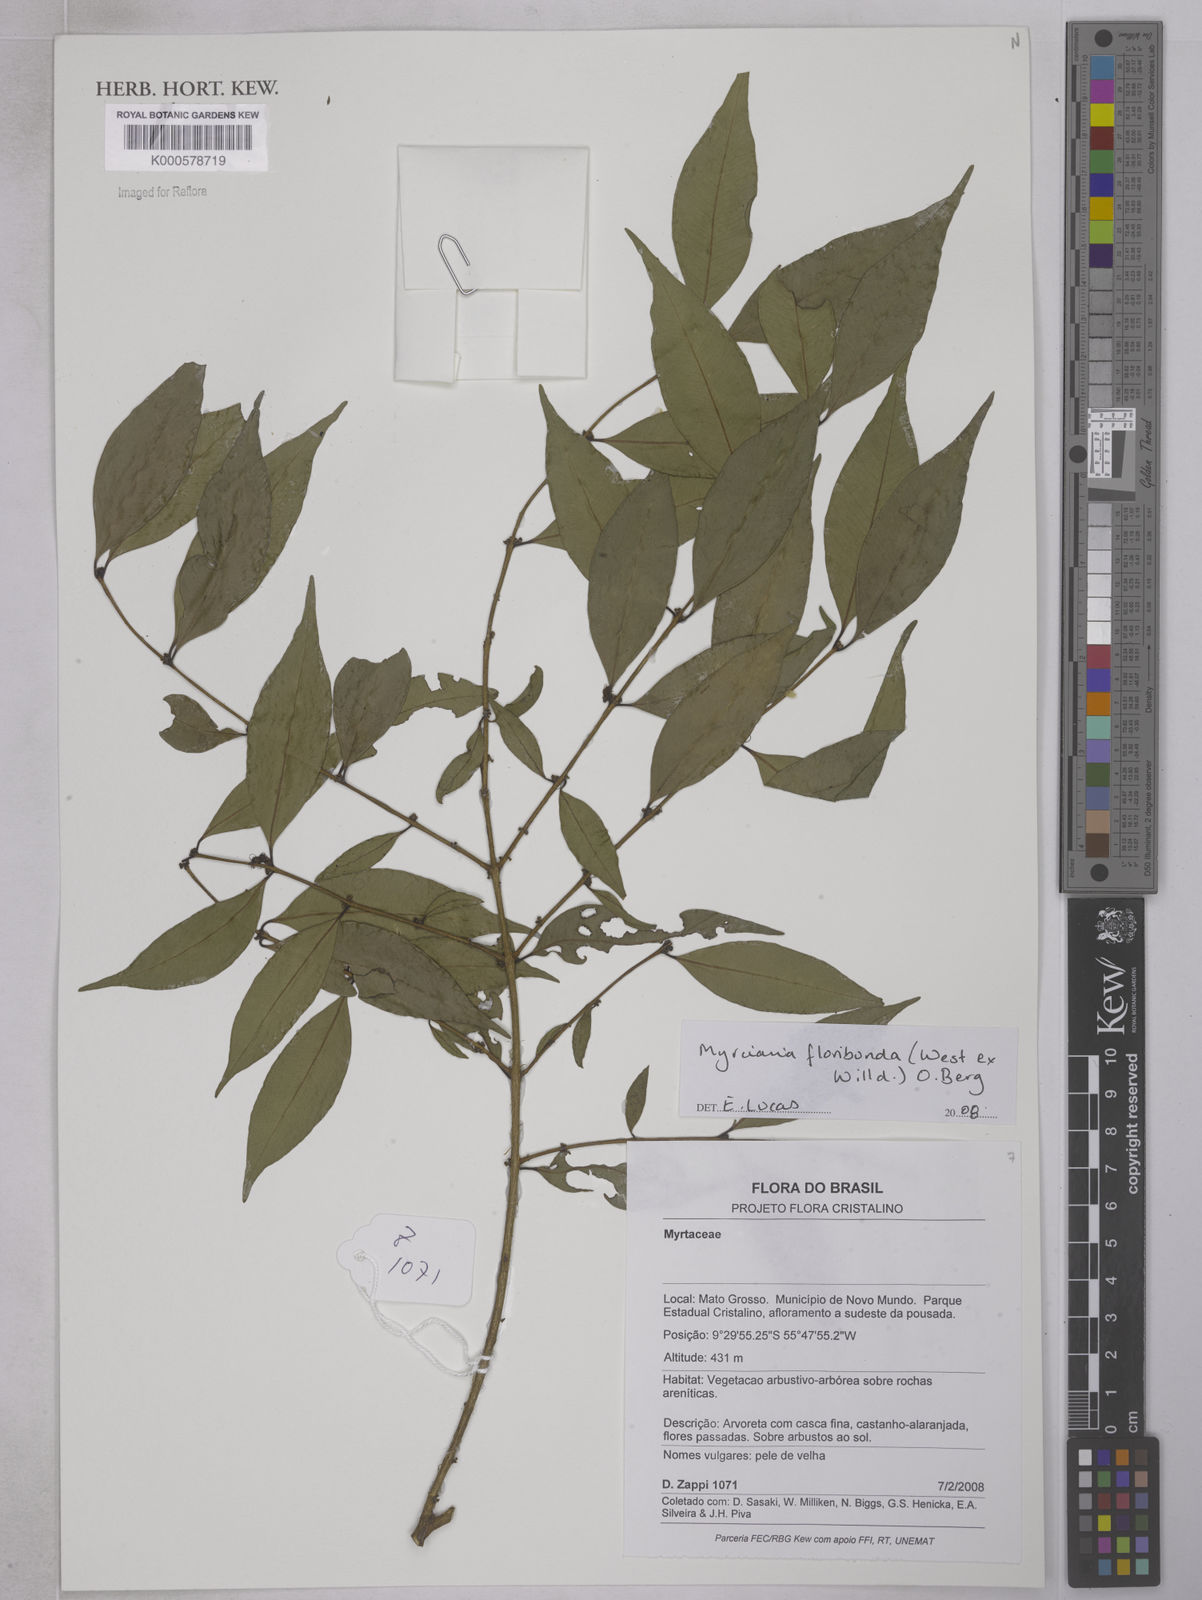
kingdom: Plantae
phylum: Tracheophyta
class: Magnoliopsida
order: Myrtales
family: Myrtaceae
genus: Myrciaria
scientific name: Myrciaria floribunda
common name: Guavaberry
